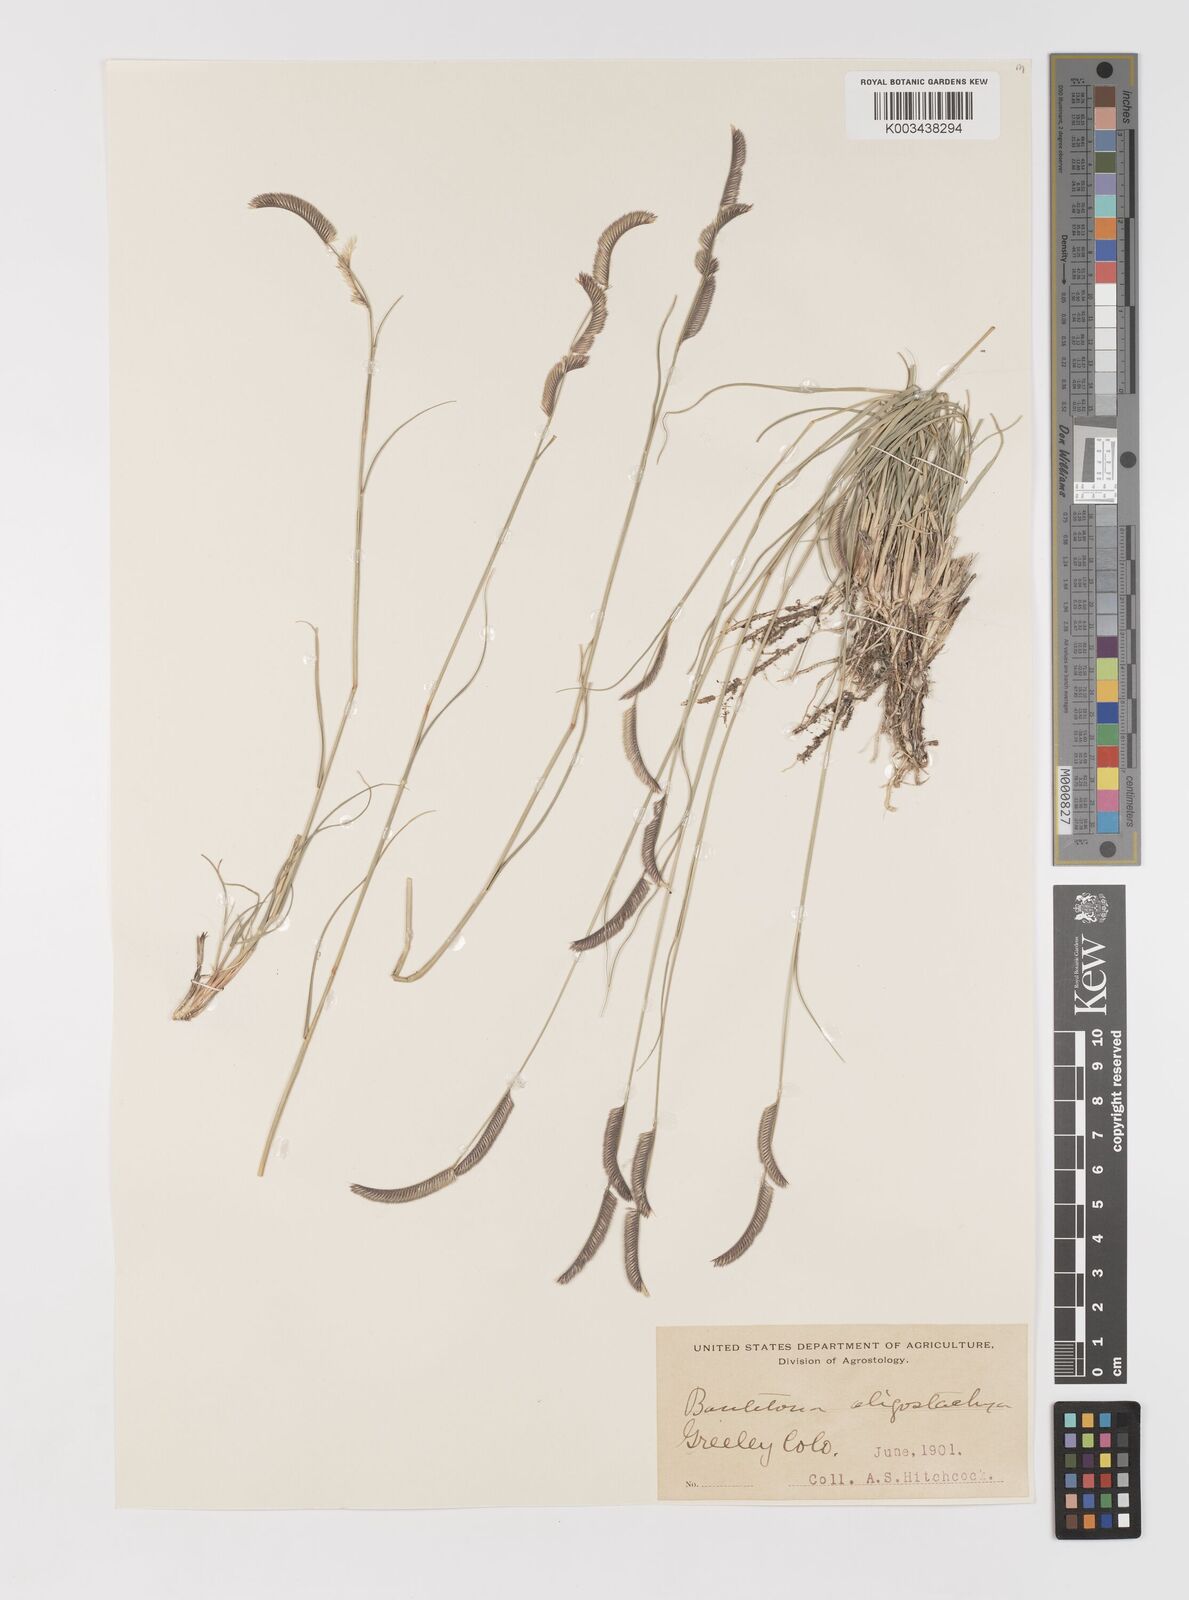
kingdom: Plantae
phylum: Tracheophyta
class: Liliopsida
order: Poales
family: Poaceae
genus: Bouteloua
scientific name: Bouteloua
